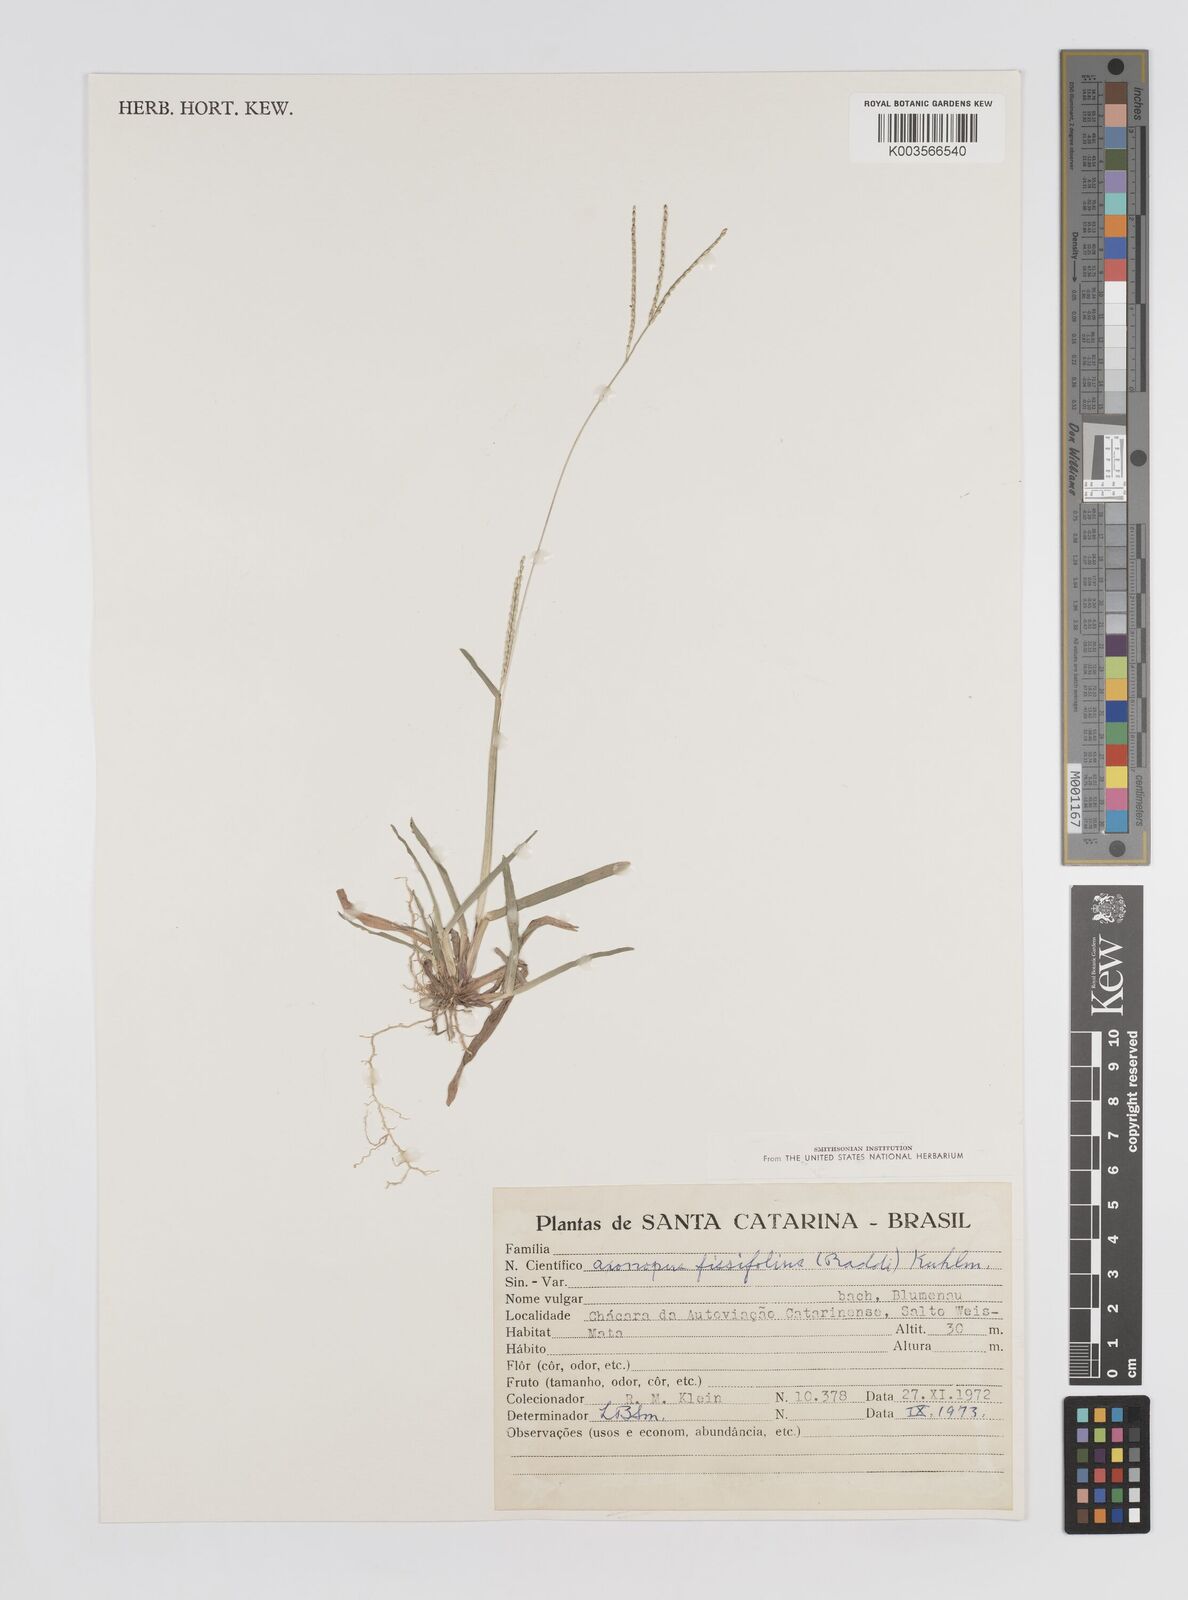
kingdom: Plantae
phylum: Tracheophyta
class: Liliopsida
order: Poales
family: Poaceae
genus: Axonopus
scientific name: Axonopus fissifolius
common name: Common carpetgrass
